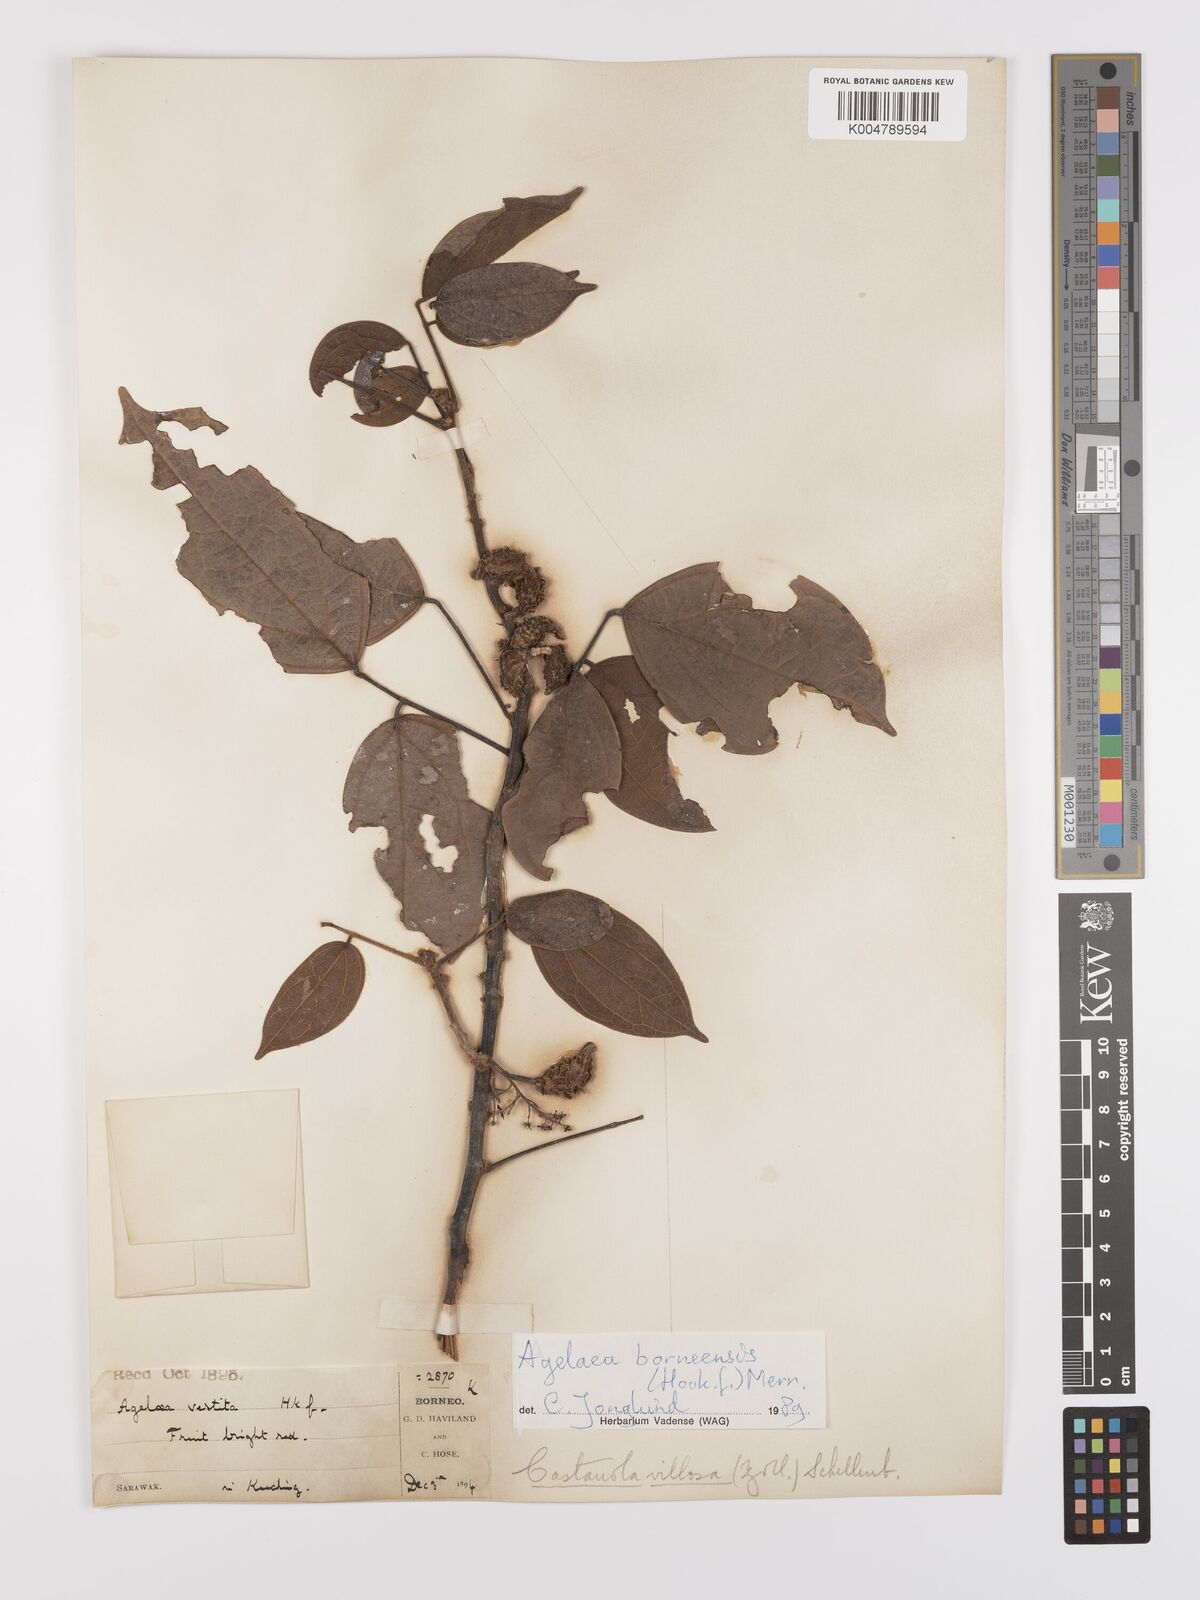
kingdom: Plantae
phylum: Tracheophyta
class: Magnoliopsida
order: Oxalidales
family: Connaraceae
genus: Agelaea
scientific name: Agelaea borneensis
